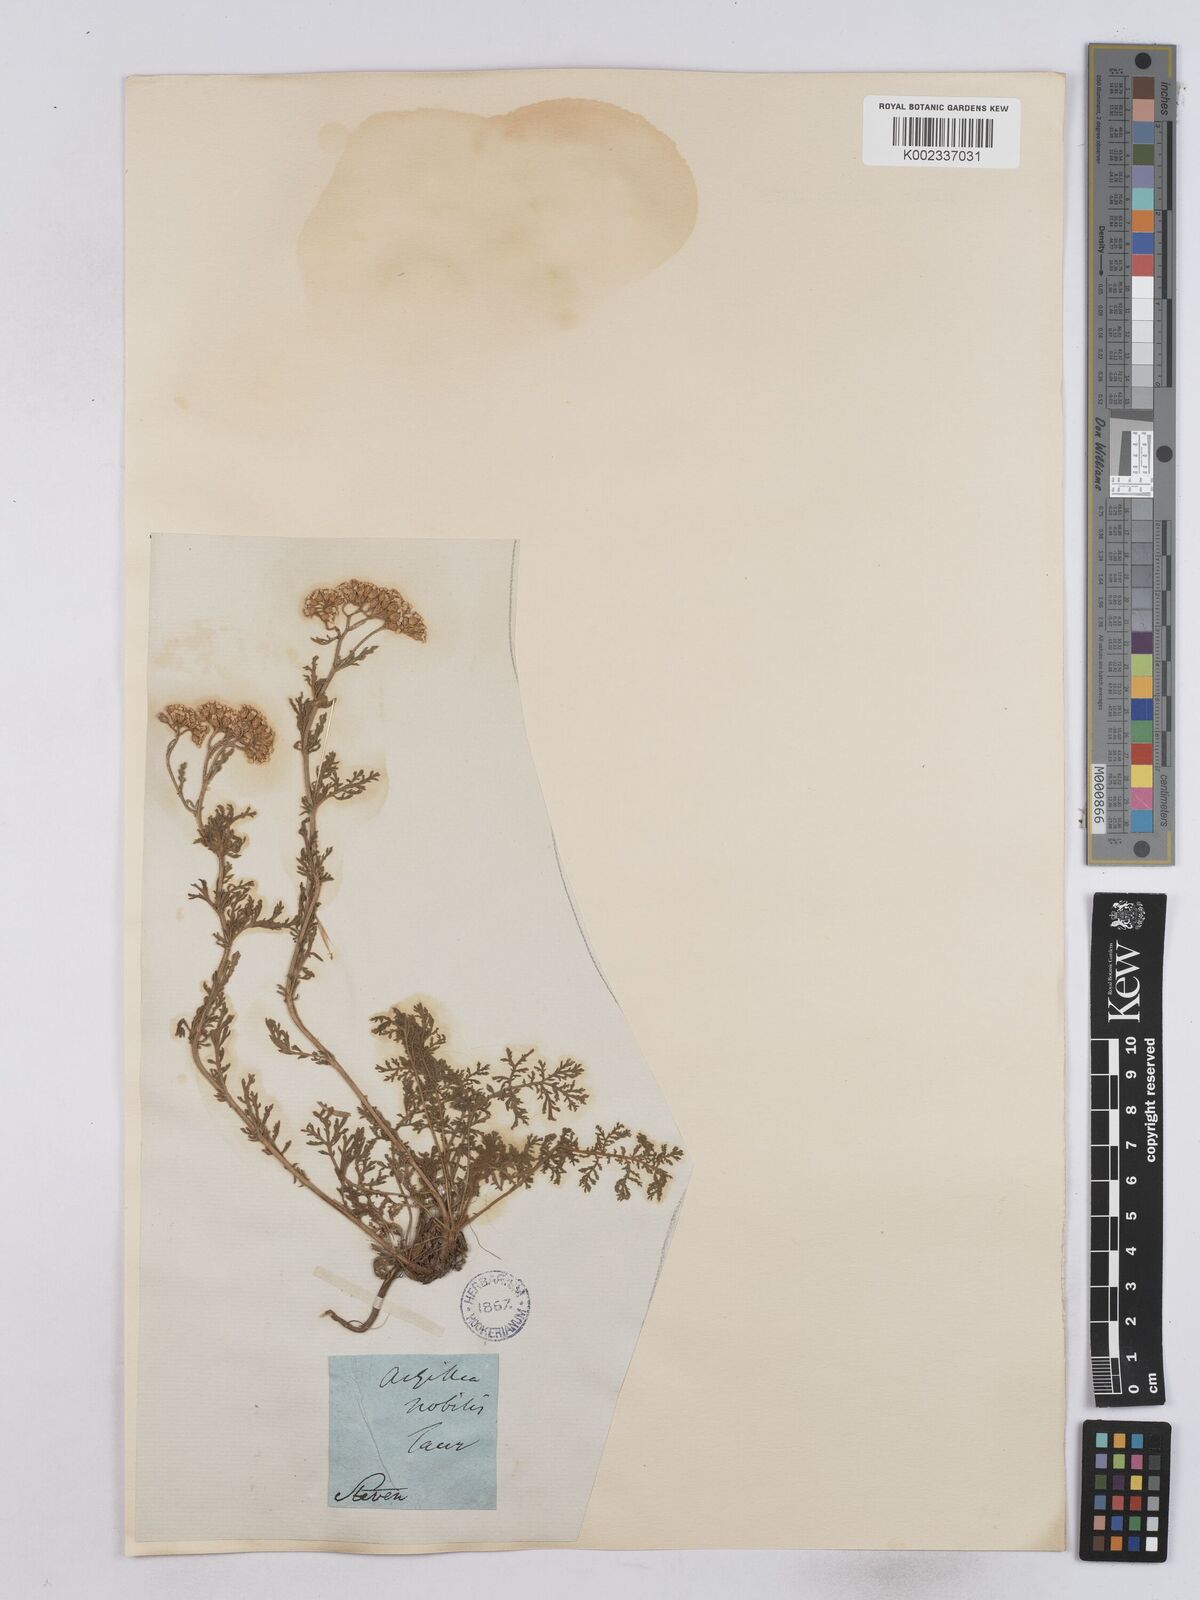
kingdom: Plantae
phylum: Tracheophyta
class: Magnoliopsida
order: Asterales
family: Asteraceae
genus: Achillea
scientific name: Achillea nobilis
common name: Noble yarrow
